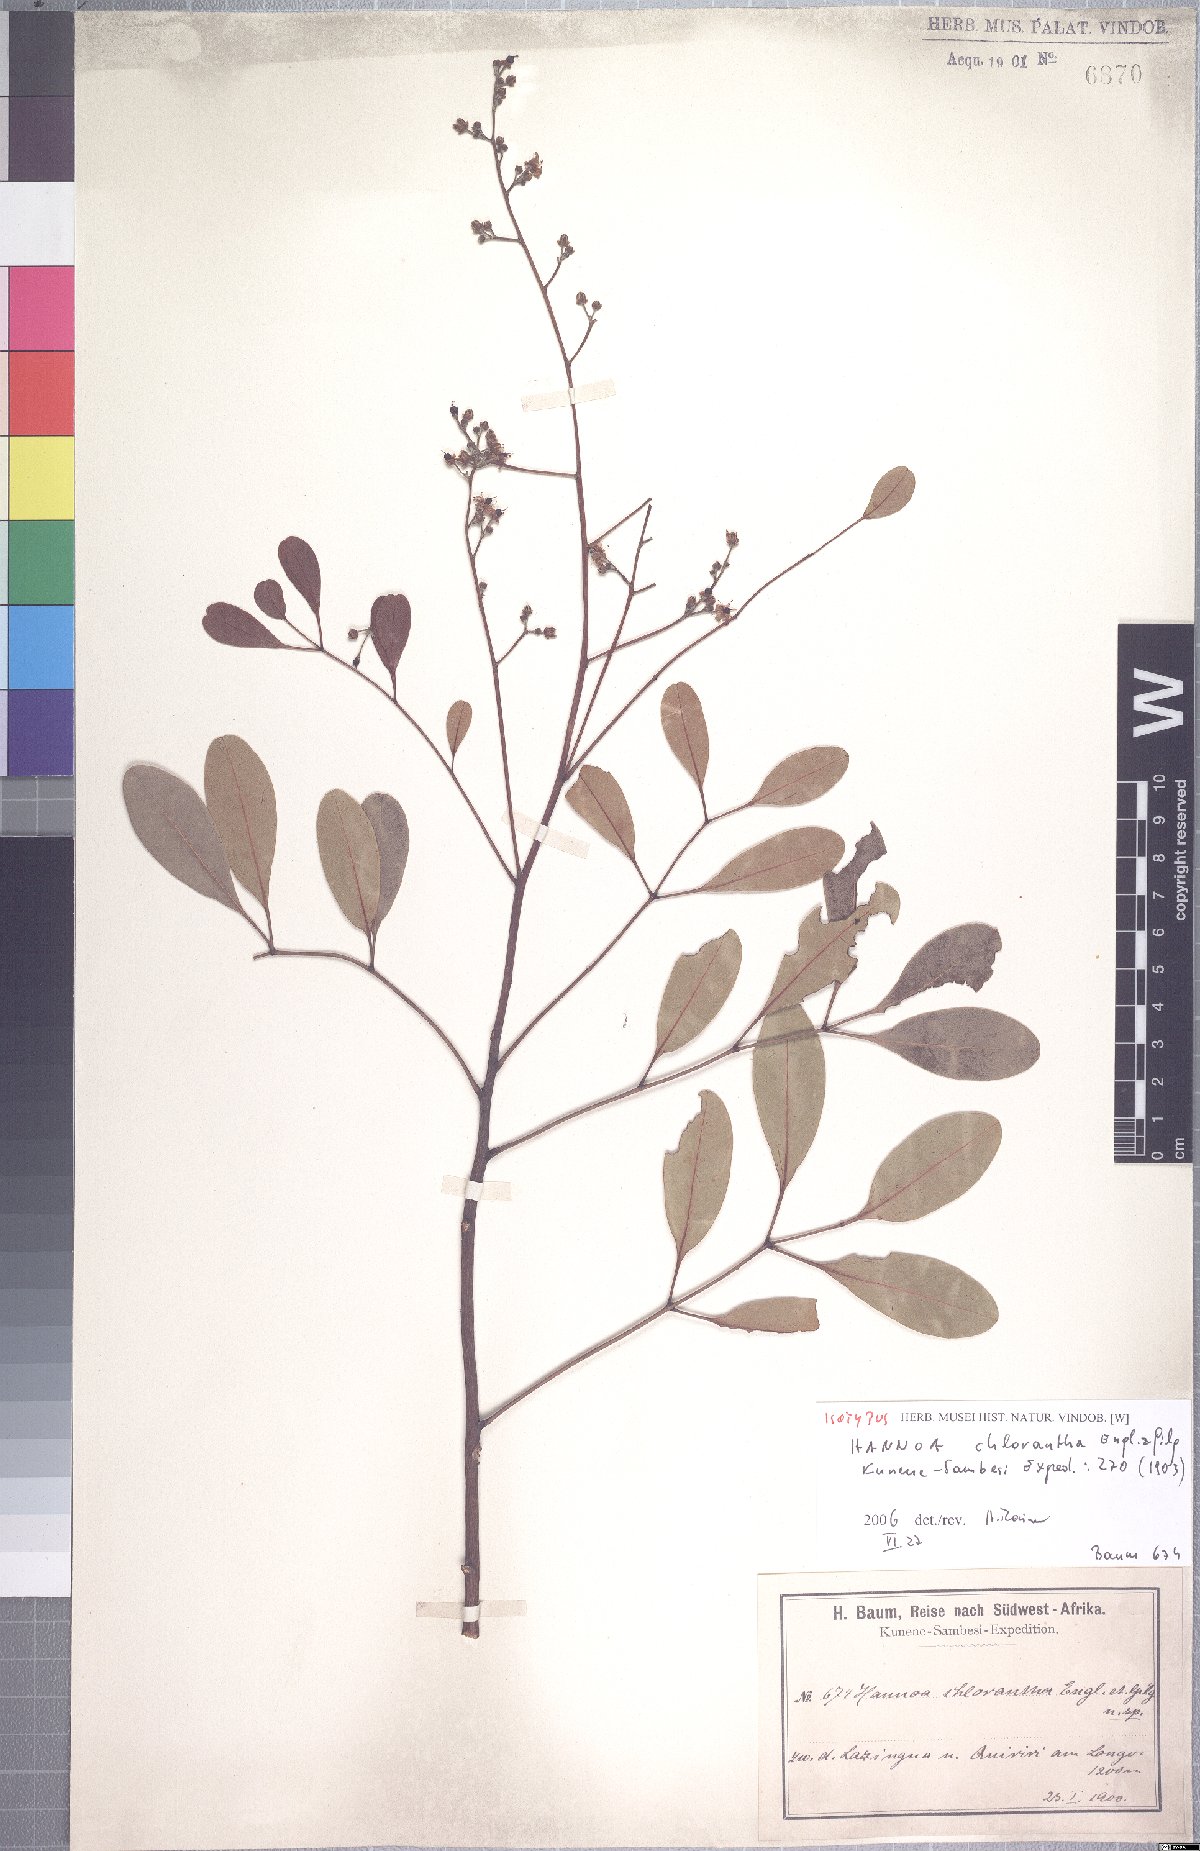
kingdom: Plantae
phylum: Tracheophyta
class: Magnoliopsida
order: Sapindales
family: Simaroubaceae
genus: Odyendyea
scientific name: Odyendyea klaineana
